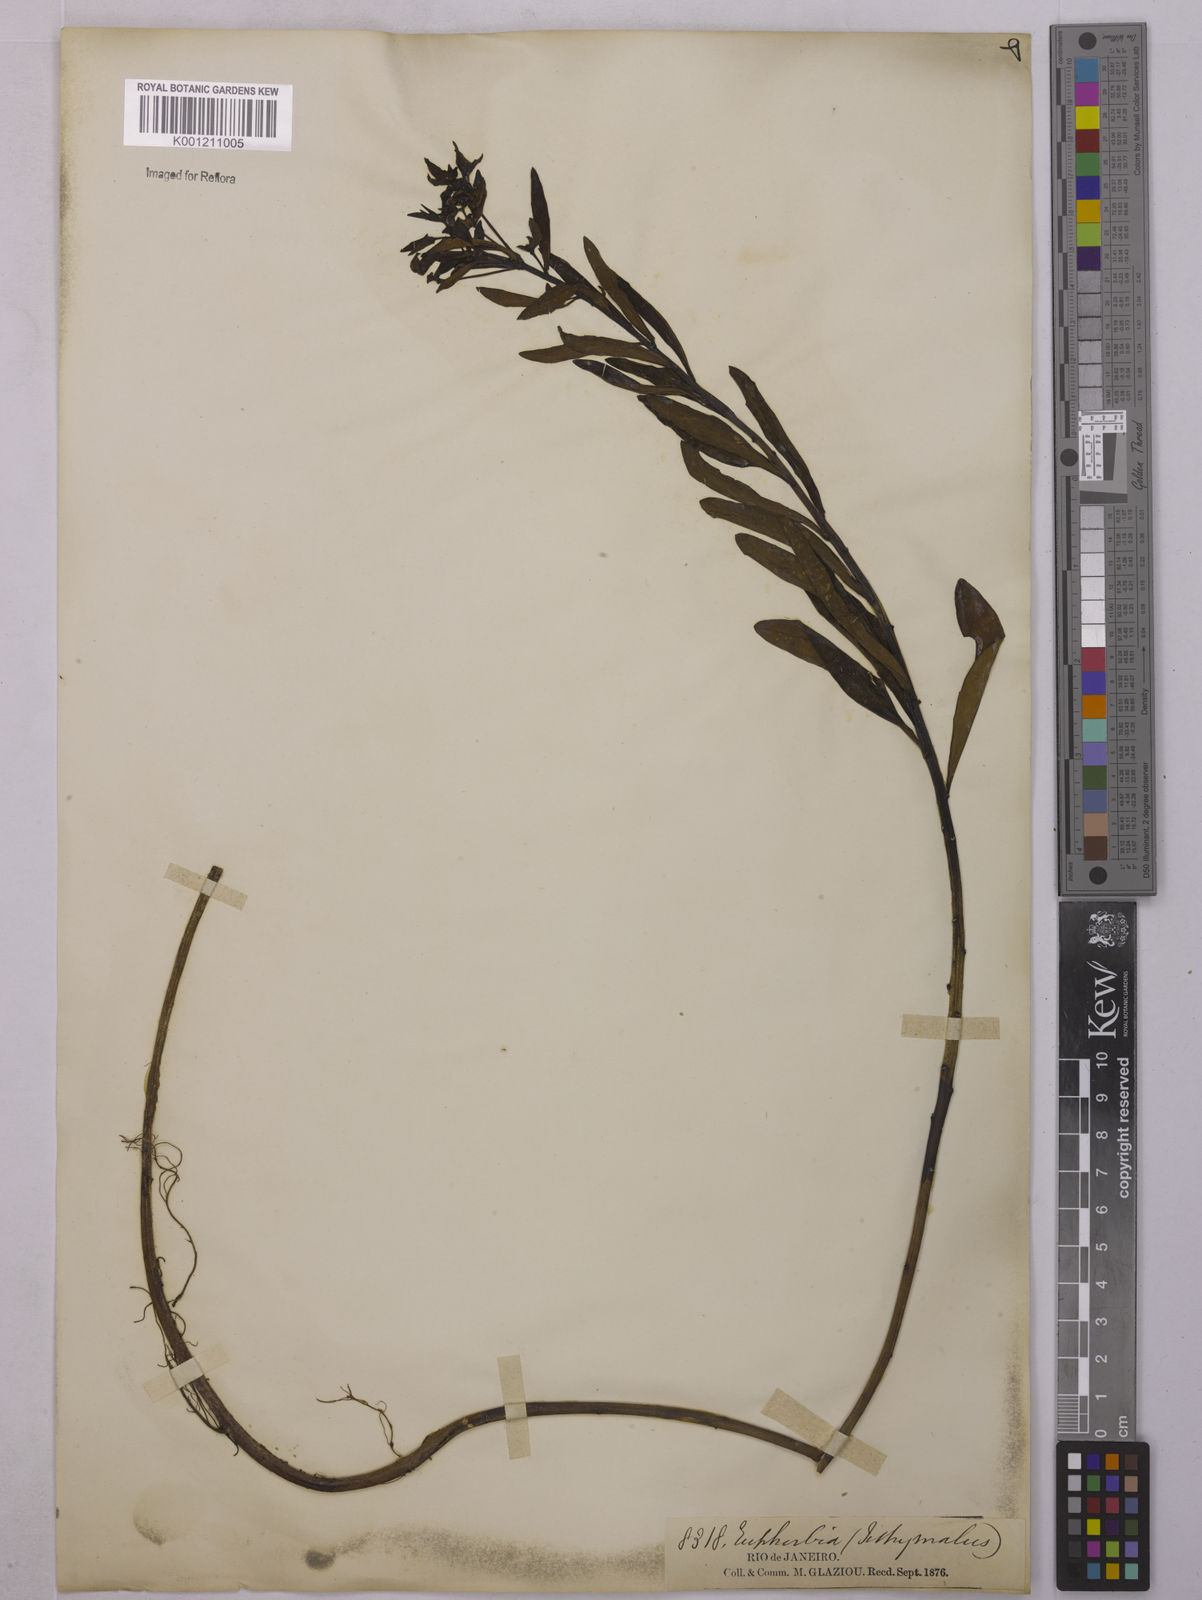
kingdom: Plantae
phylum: Tracheophyta
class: Magnoliopsida
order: Malpighiales
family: Euphorbiaceae
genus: Euphorbia
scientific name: Euphorbia
